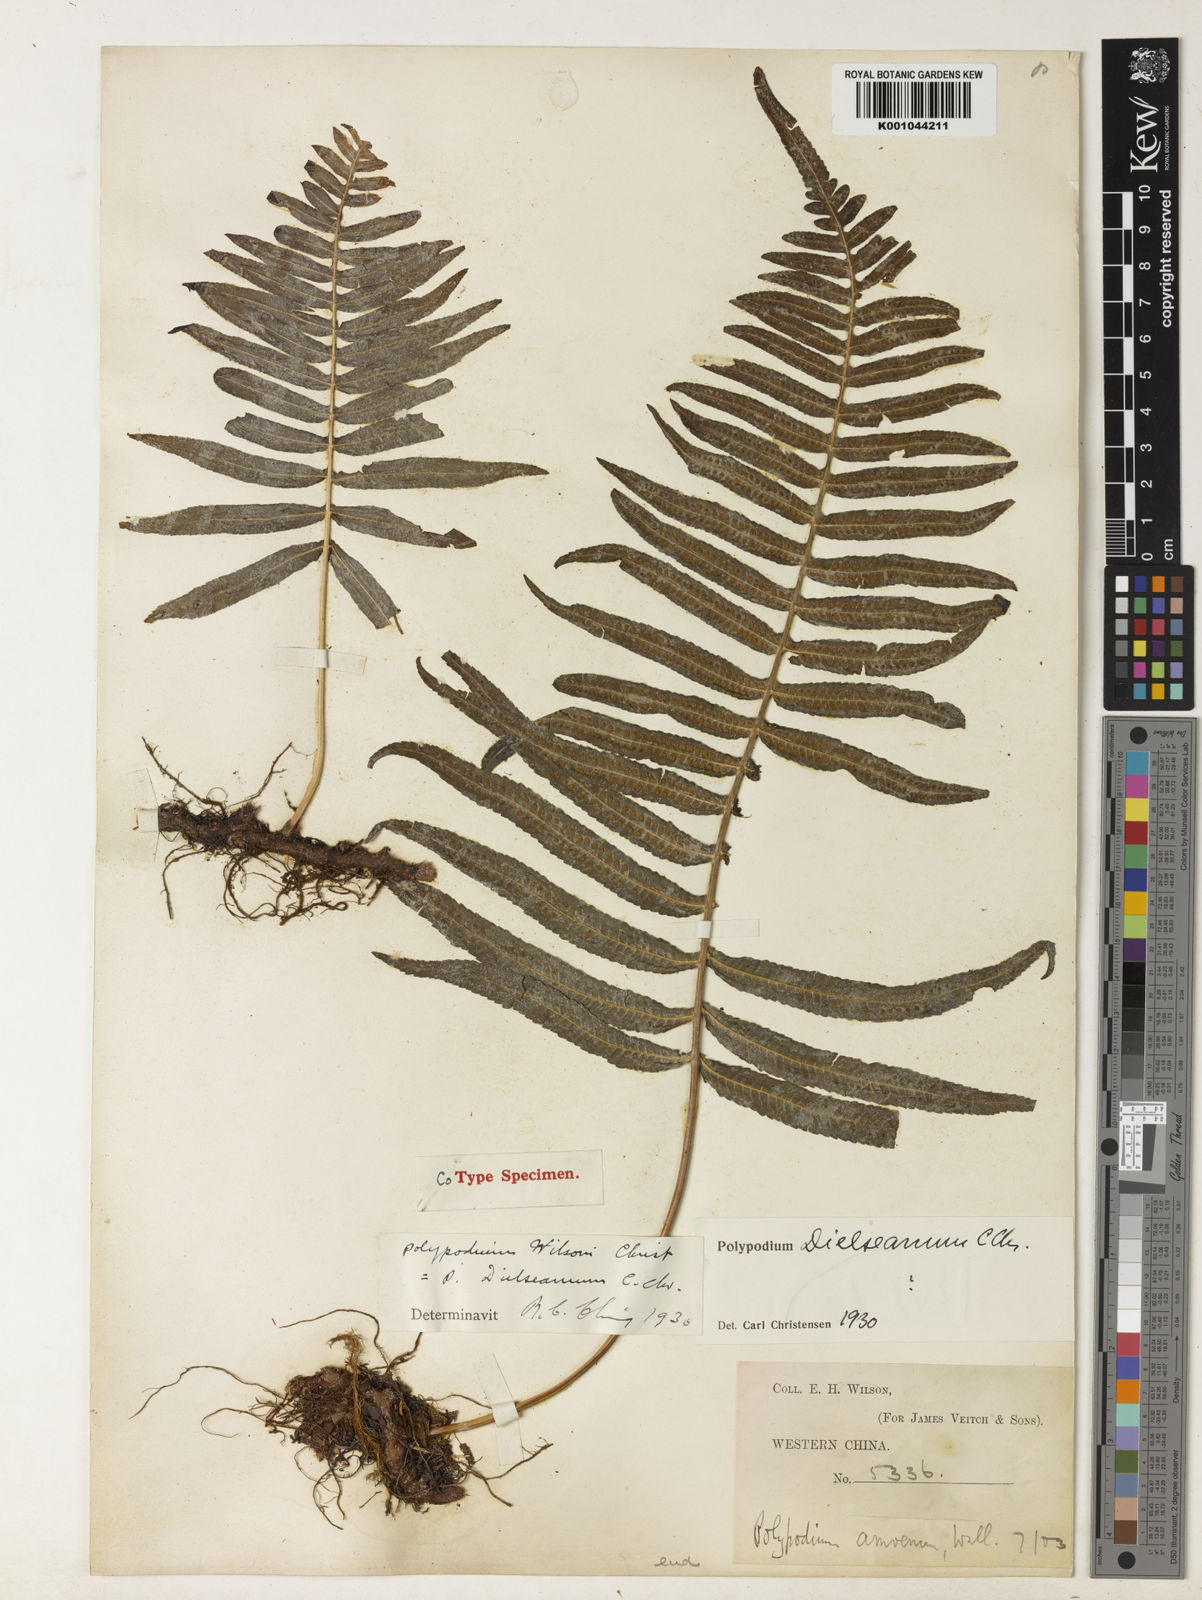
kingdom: Plantae
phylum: Tracheophyta
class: Polypodiopsida
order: Polypodiales
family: Polypodiaceae
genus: Goniophlebium
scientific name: Goniophlebium dielseanum
